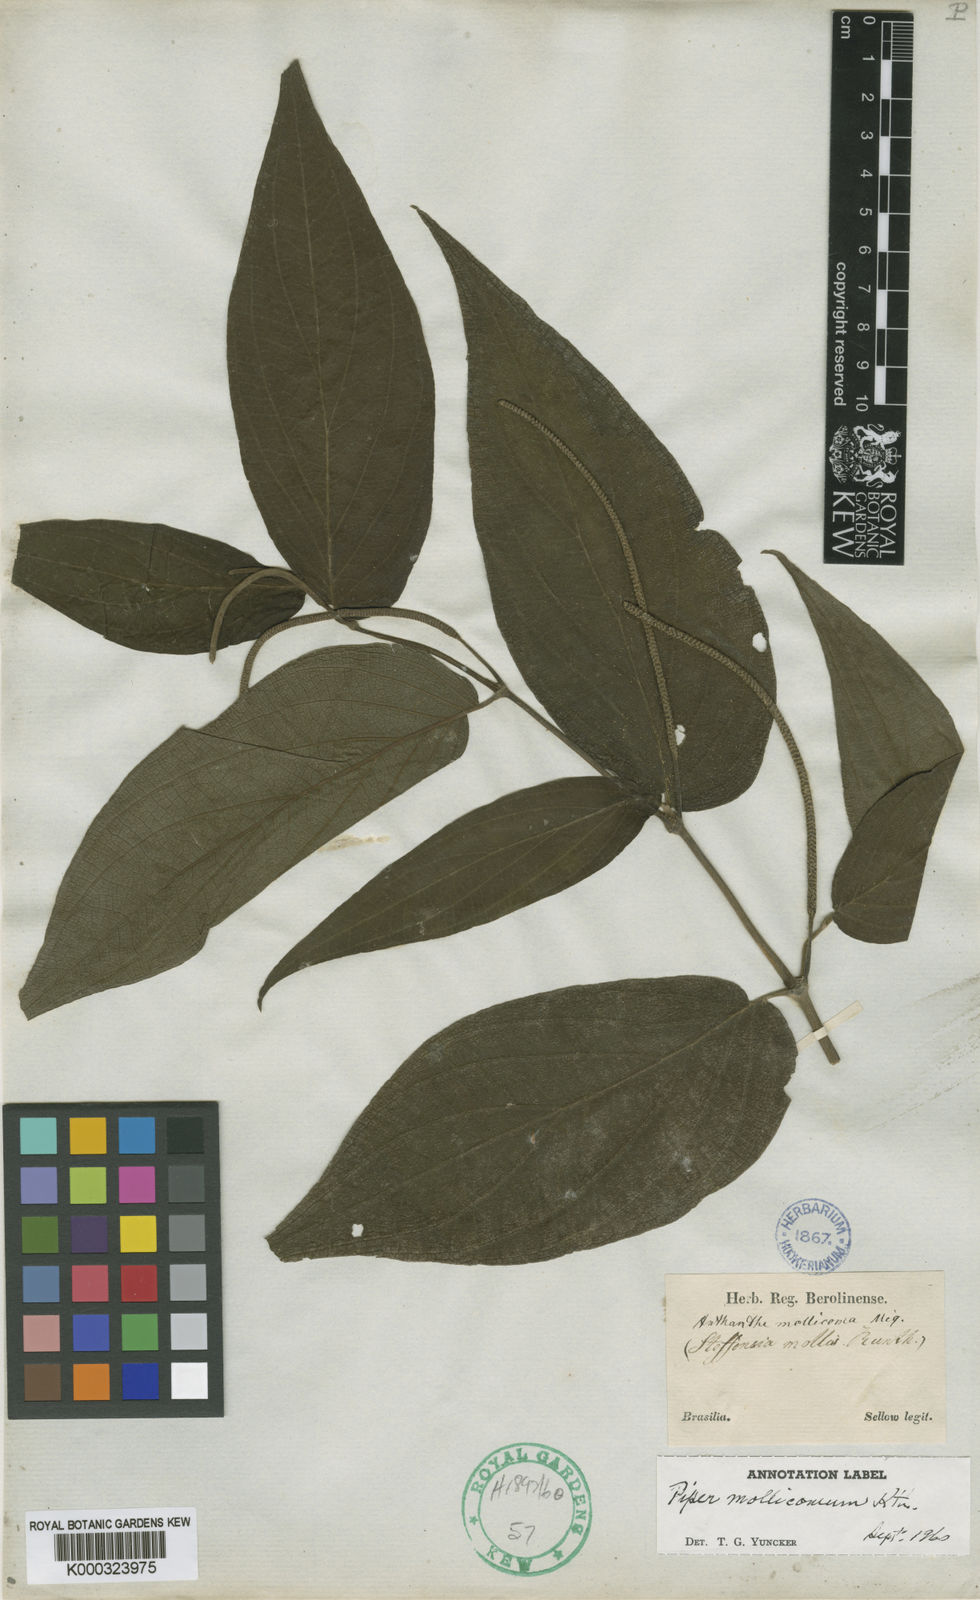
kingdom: Plantae
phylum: Tracheophyta
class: Magnoliopsida
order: Piperales
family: Piperaceae
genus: Piper
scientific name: Piper
